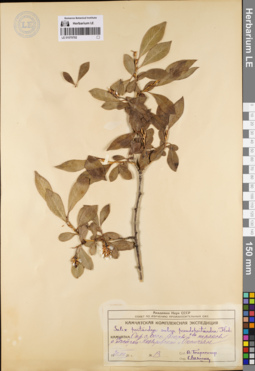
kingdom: Plantae
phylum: Tracheophyta
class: Magnoliopsida
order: Malpighiales
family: Salicaceae
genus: Salix
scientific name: Salix pseudopentandra
